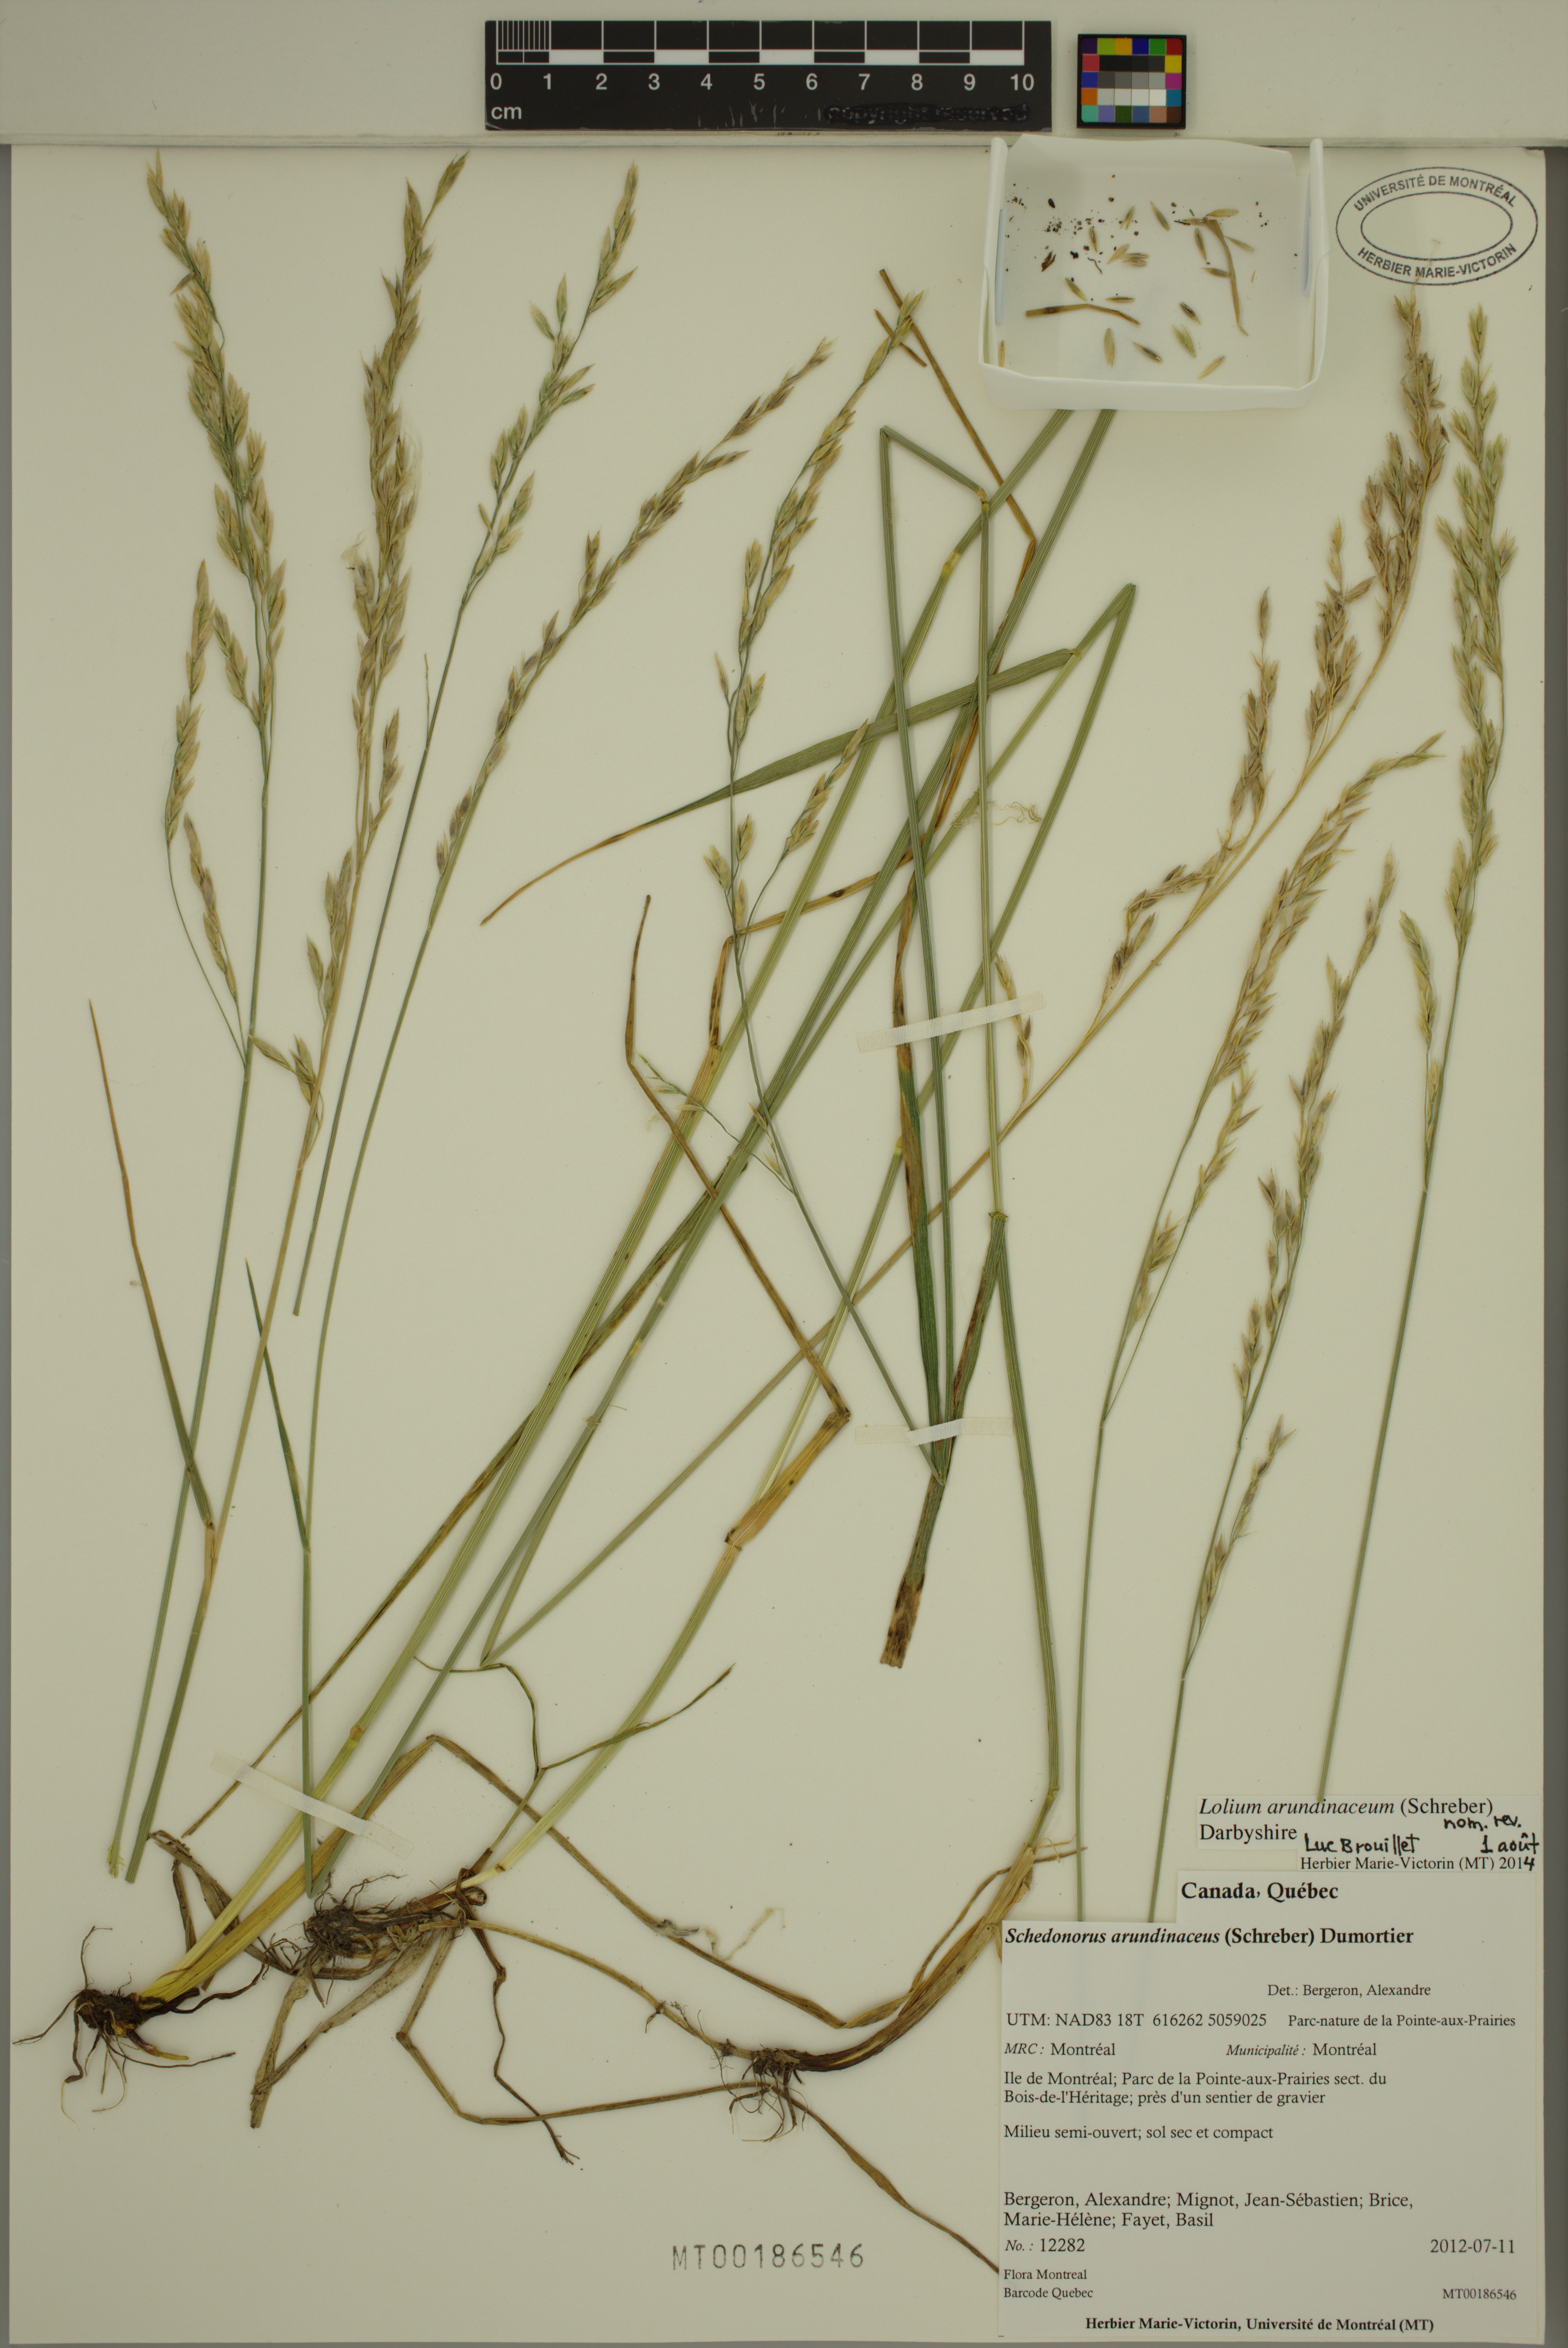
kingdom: Plantae
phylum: Tracheophyta
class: Liliopsida
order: Poales
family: Poaceae
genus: Lolium
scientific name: Lolium arundinaceum
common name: Reed fescue
